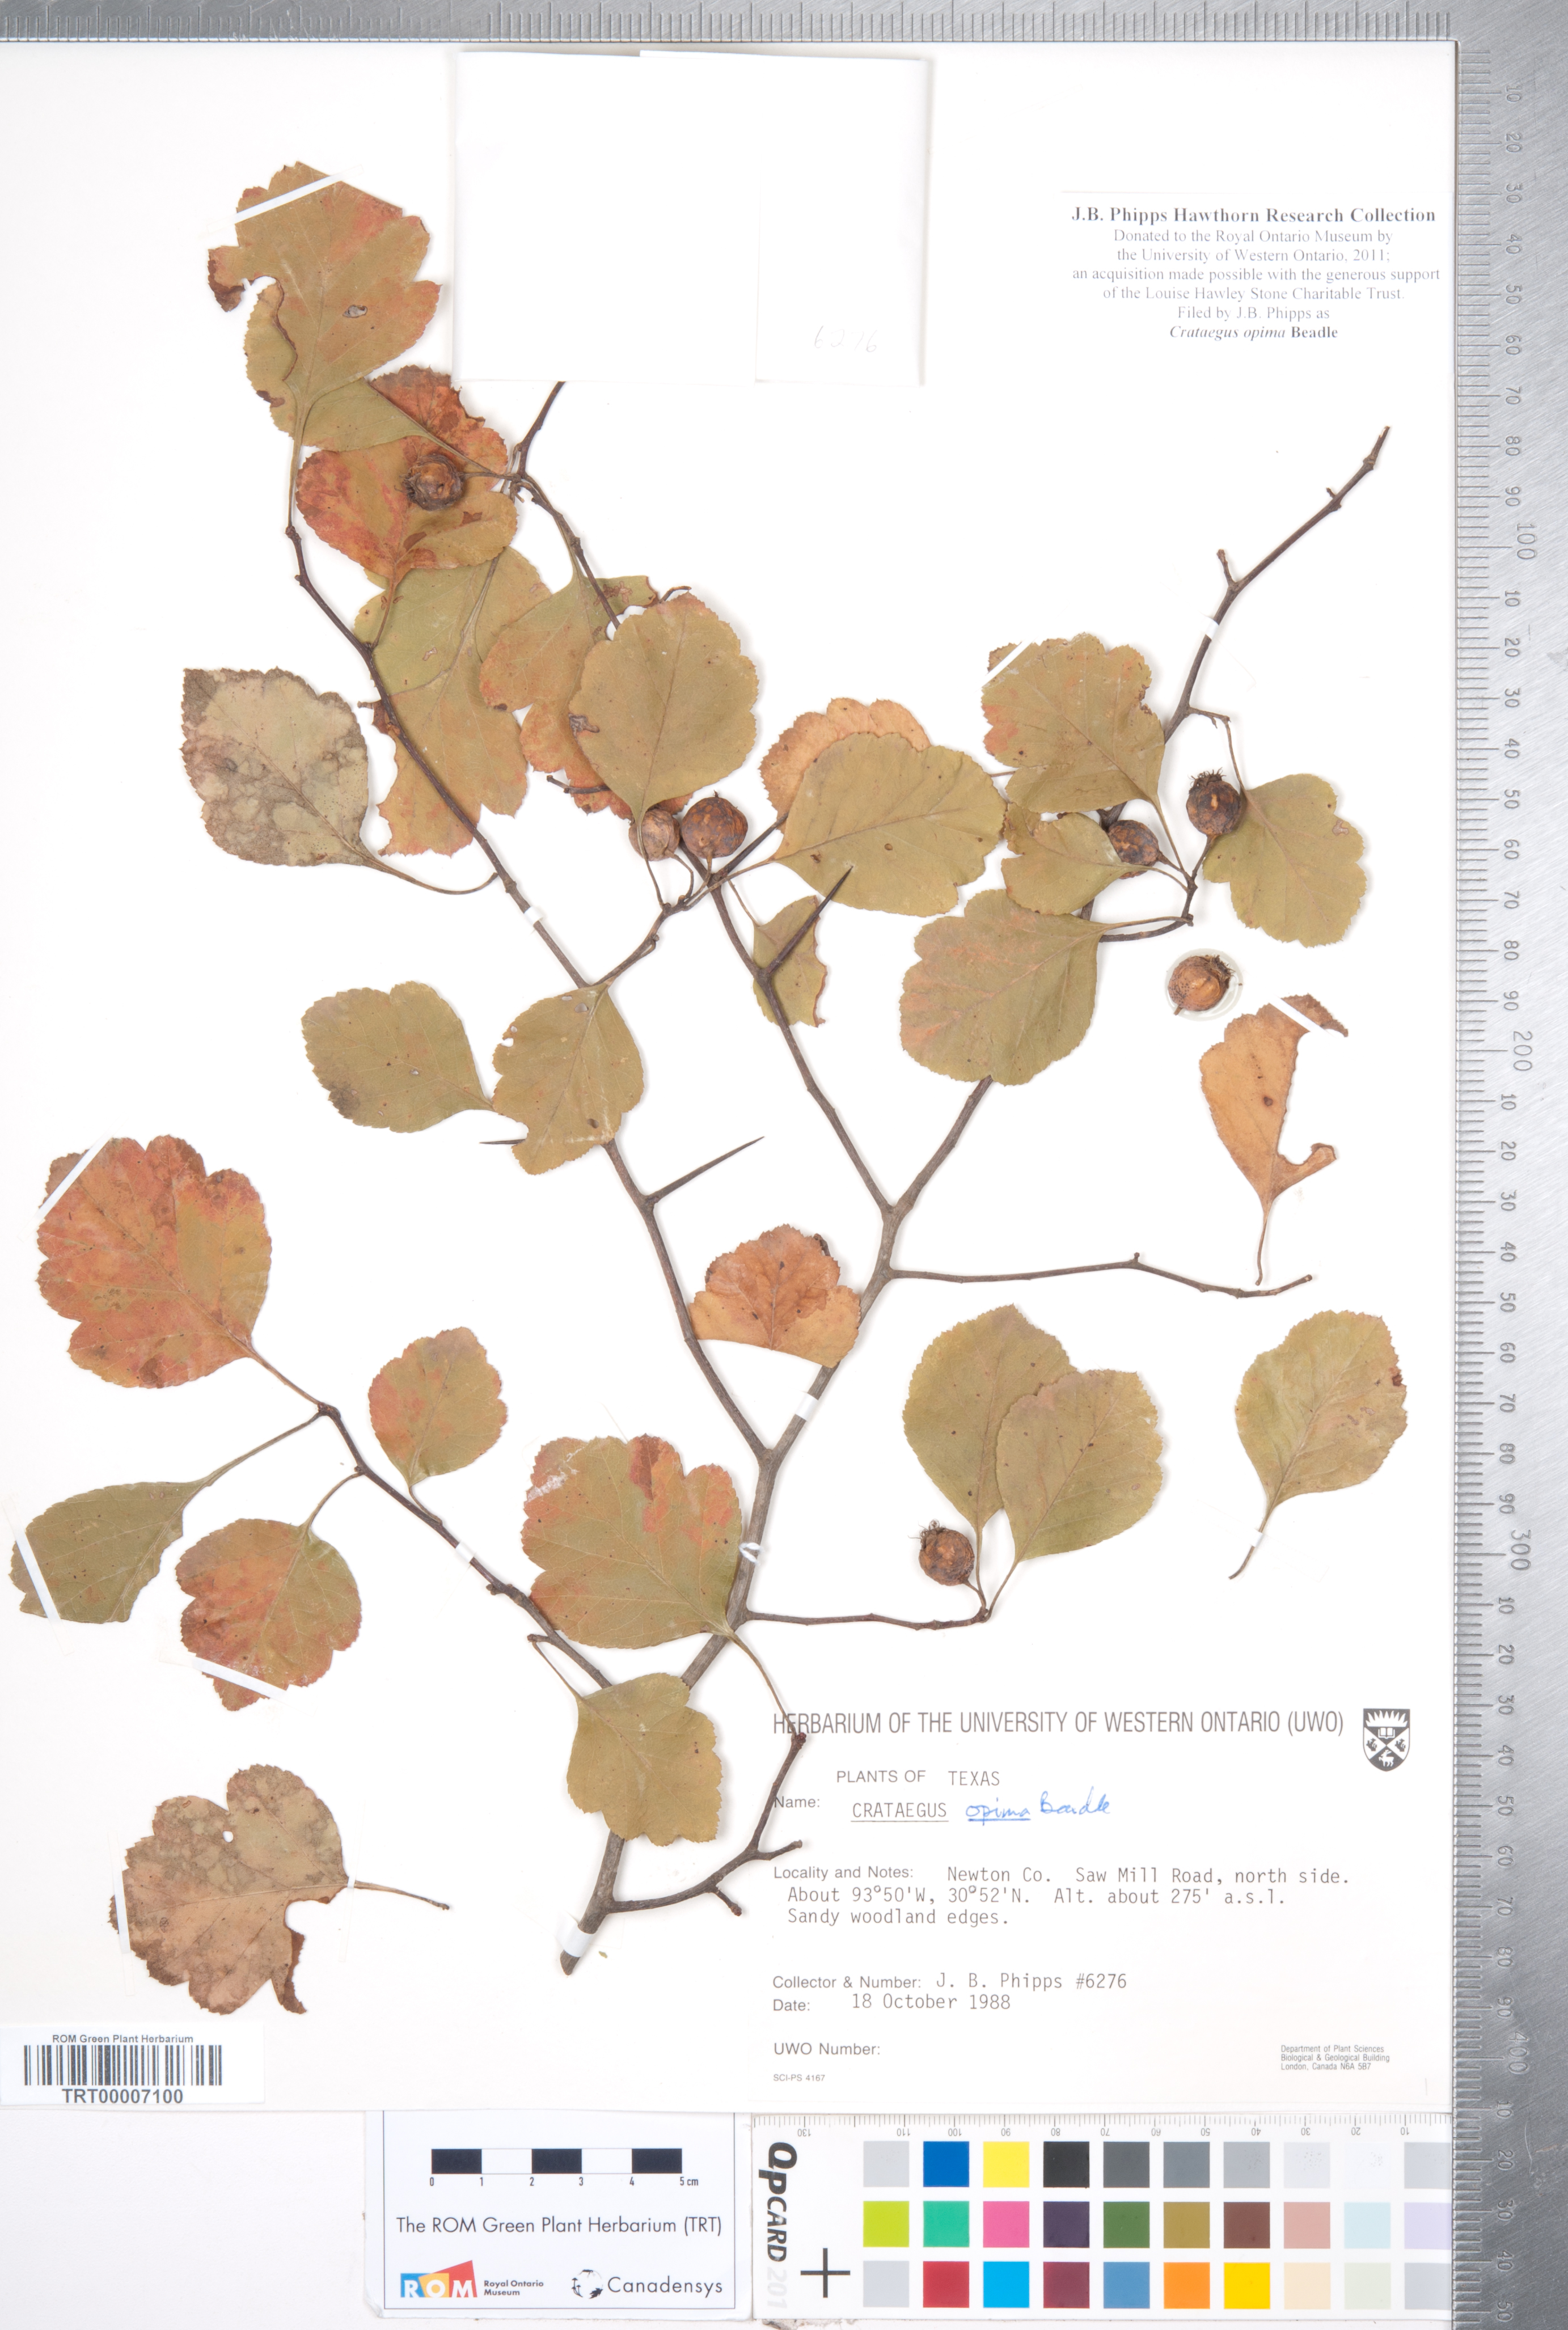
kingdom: Plantae
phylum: Tracheophyta
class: Magnoliopsida
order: Rosales
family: Rosaceae
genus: Crataegus
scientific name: Crataegus pulcherrima
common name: Beautiful hawthorn
